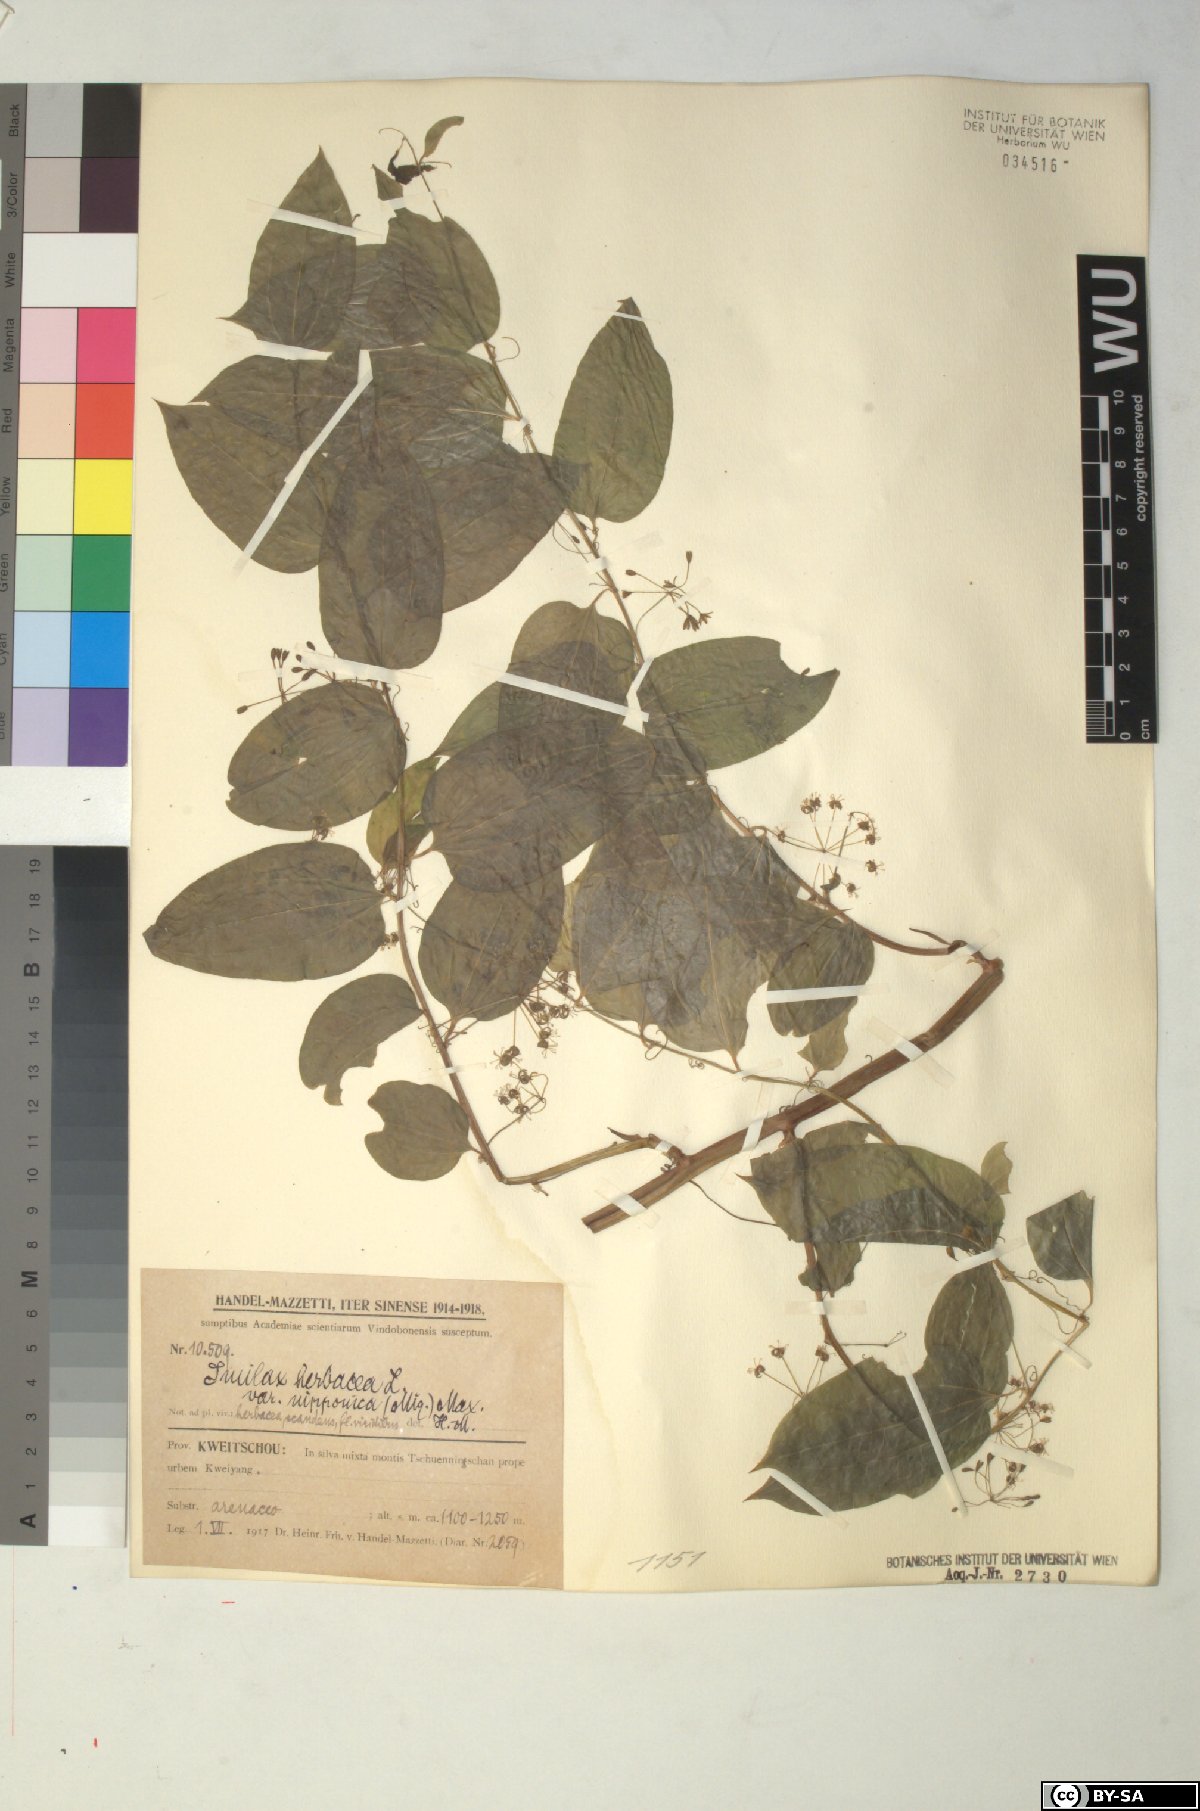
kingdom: Plantae
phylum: Tracheophyta
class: Liliopsida
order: Liliales
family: Smilacaceae
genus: Smilax
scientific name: Smilax nipponica
